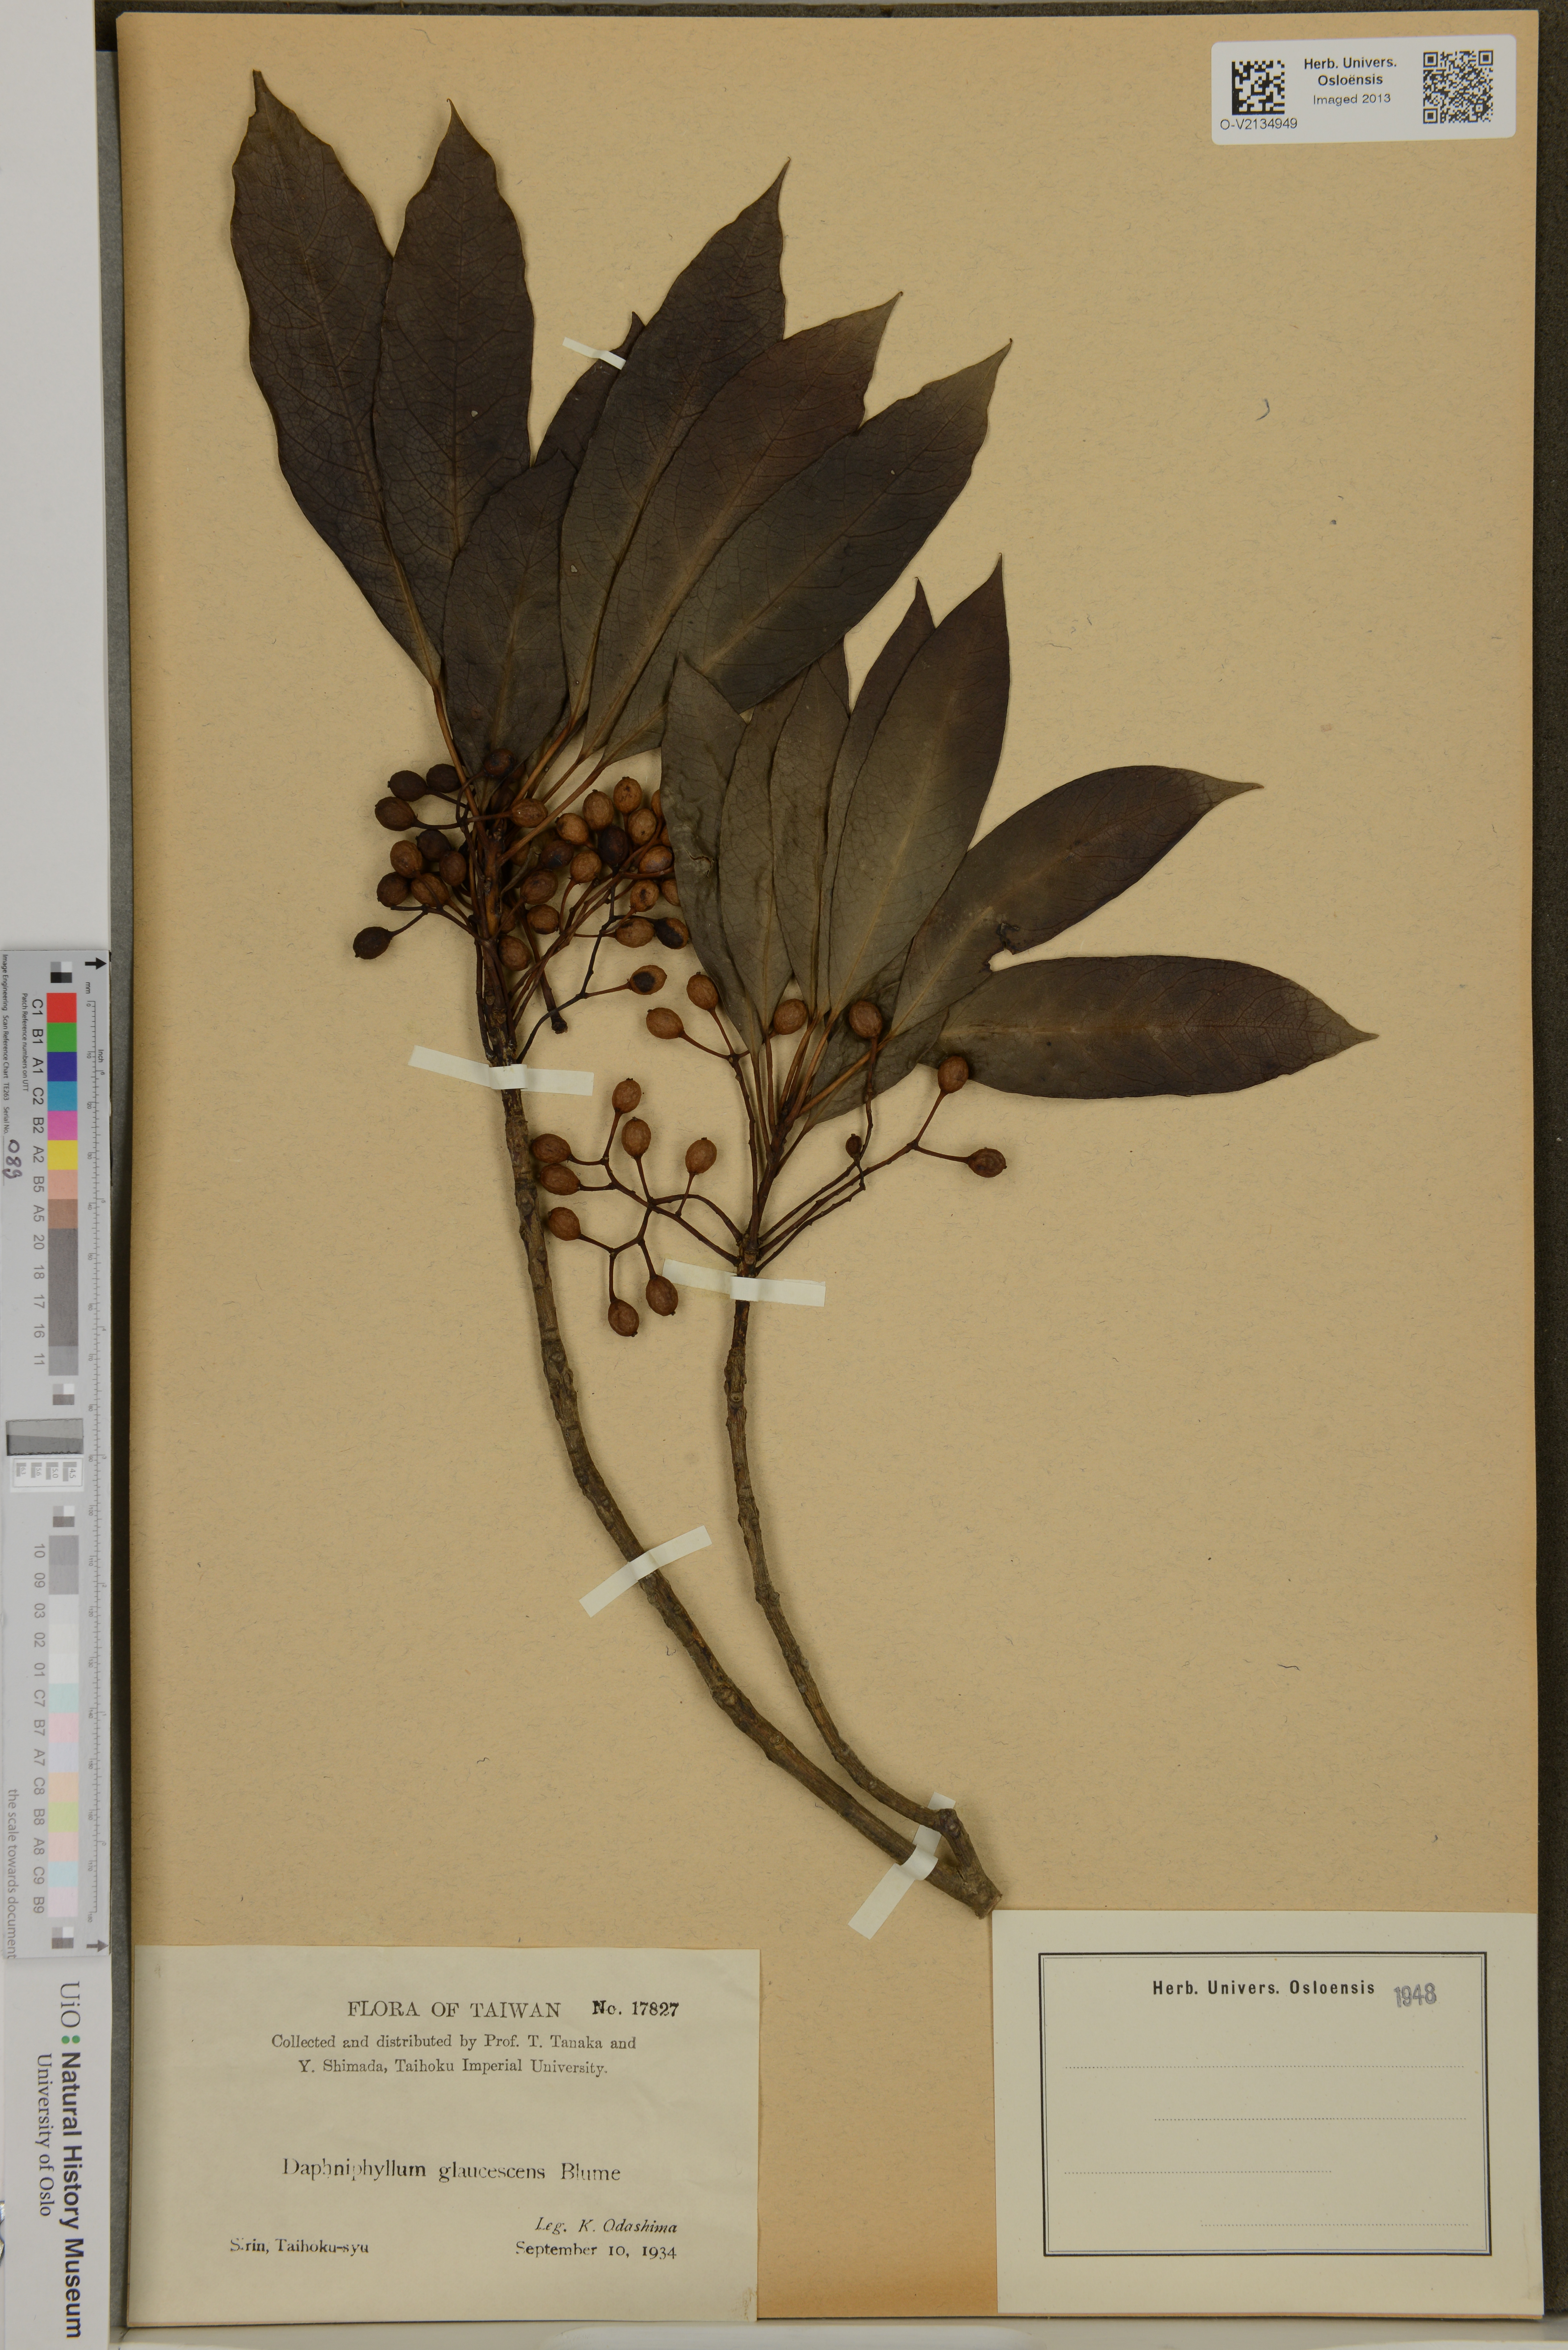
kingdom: Plantae
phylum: Tracheophyta
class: Magnoliopsida
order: Saxifragales
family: Daphniphyllaceae
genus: Daphniphyllum
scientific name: Daphniphyllum glaucescens
